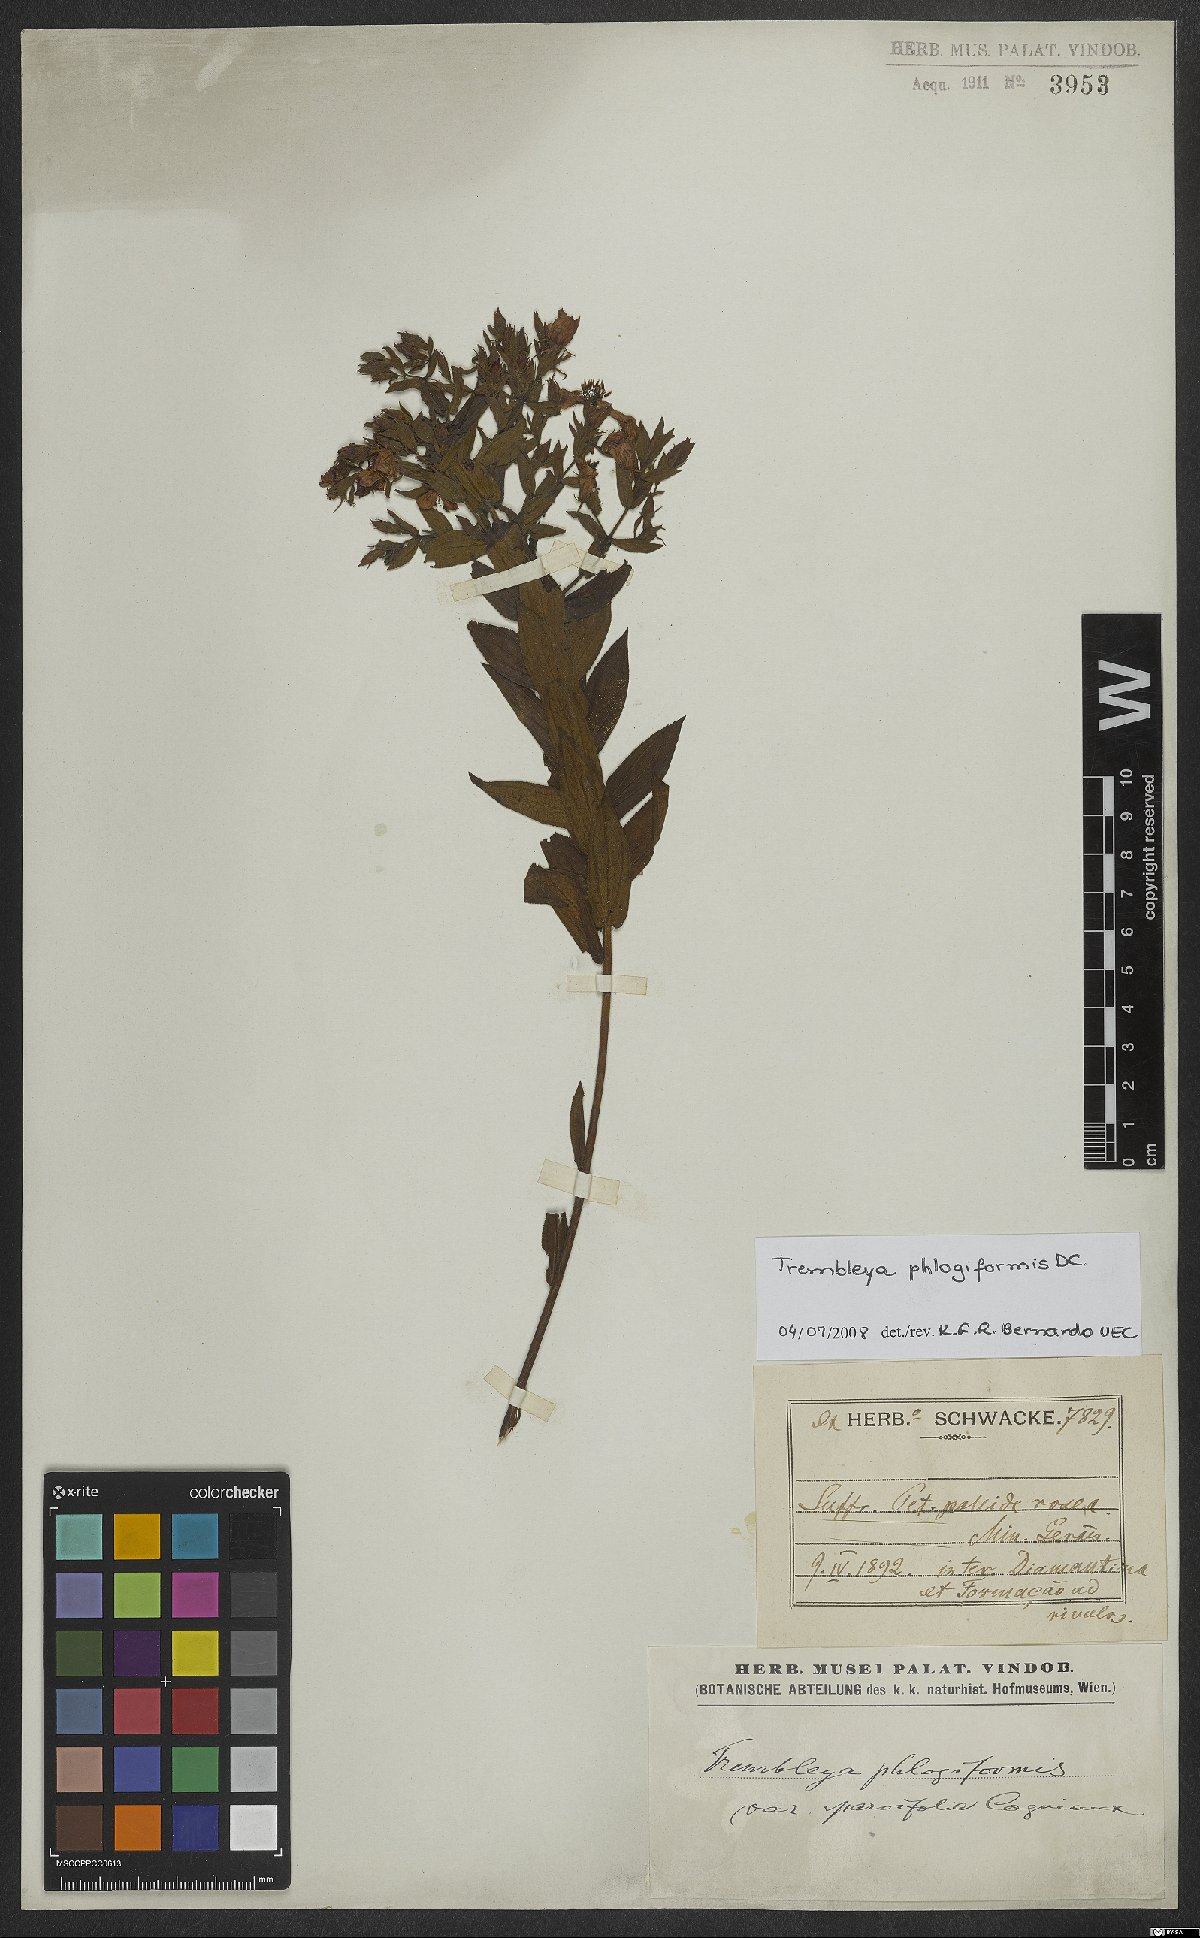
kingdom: Plantae
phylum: Tracheophyta
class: Magnoliopsida
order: Myrtales
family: Melastomataceae
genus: Microlicia
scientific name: Microlicia phlogiformis
